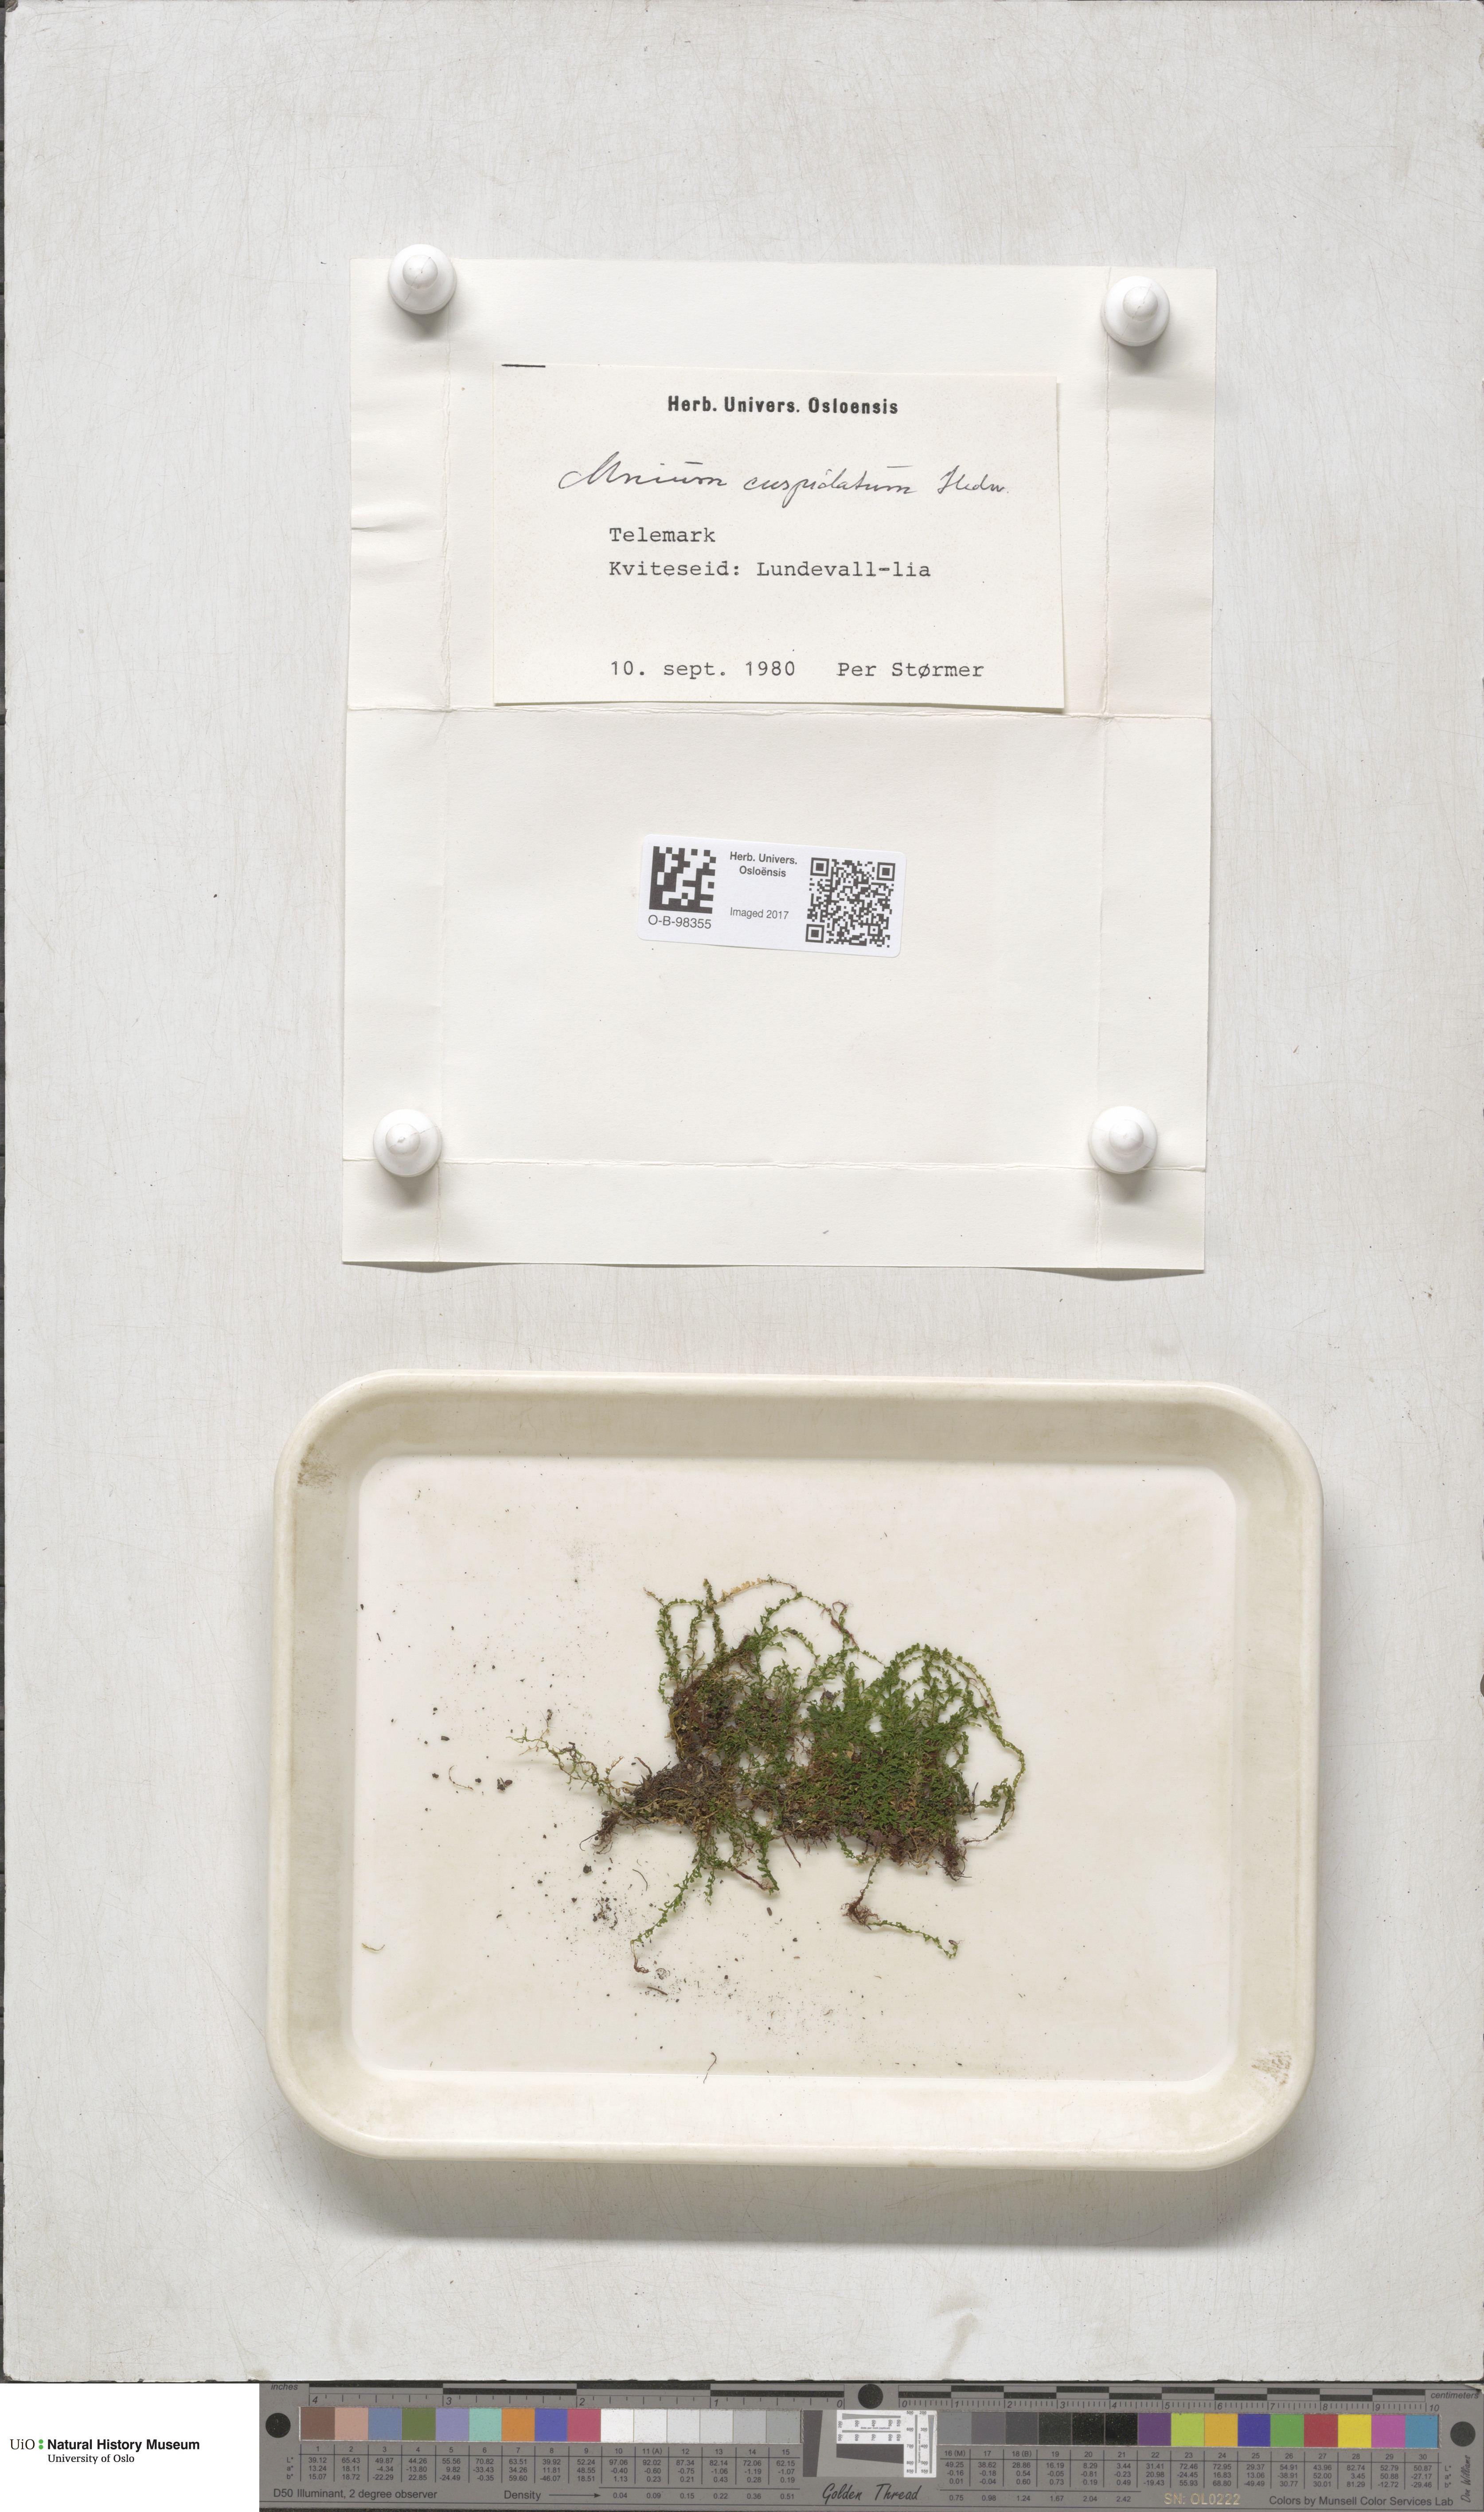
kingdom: Plantae
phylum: Bryophyta
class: Bryopsida
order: Bryales
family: Mniaceae
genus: Plagiomnium
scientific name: Plagiomnium cuspidatum
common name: Woodsy leafy moss
